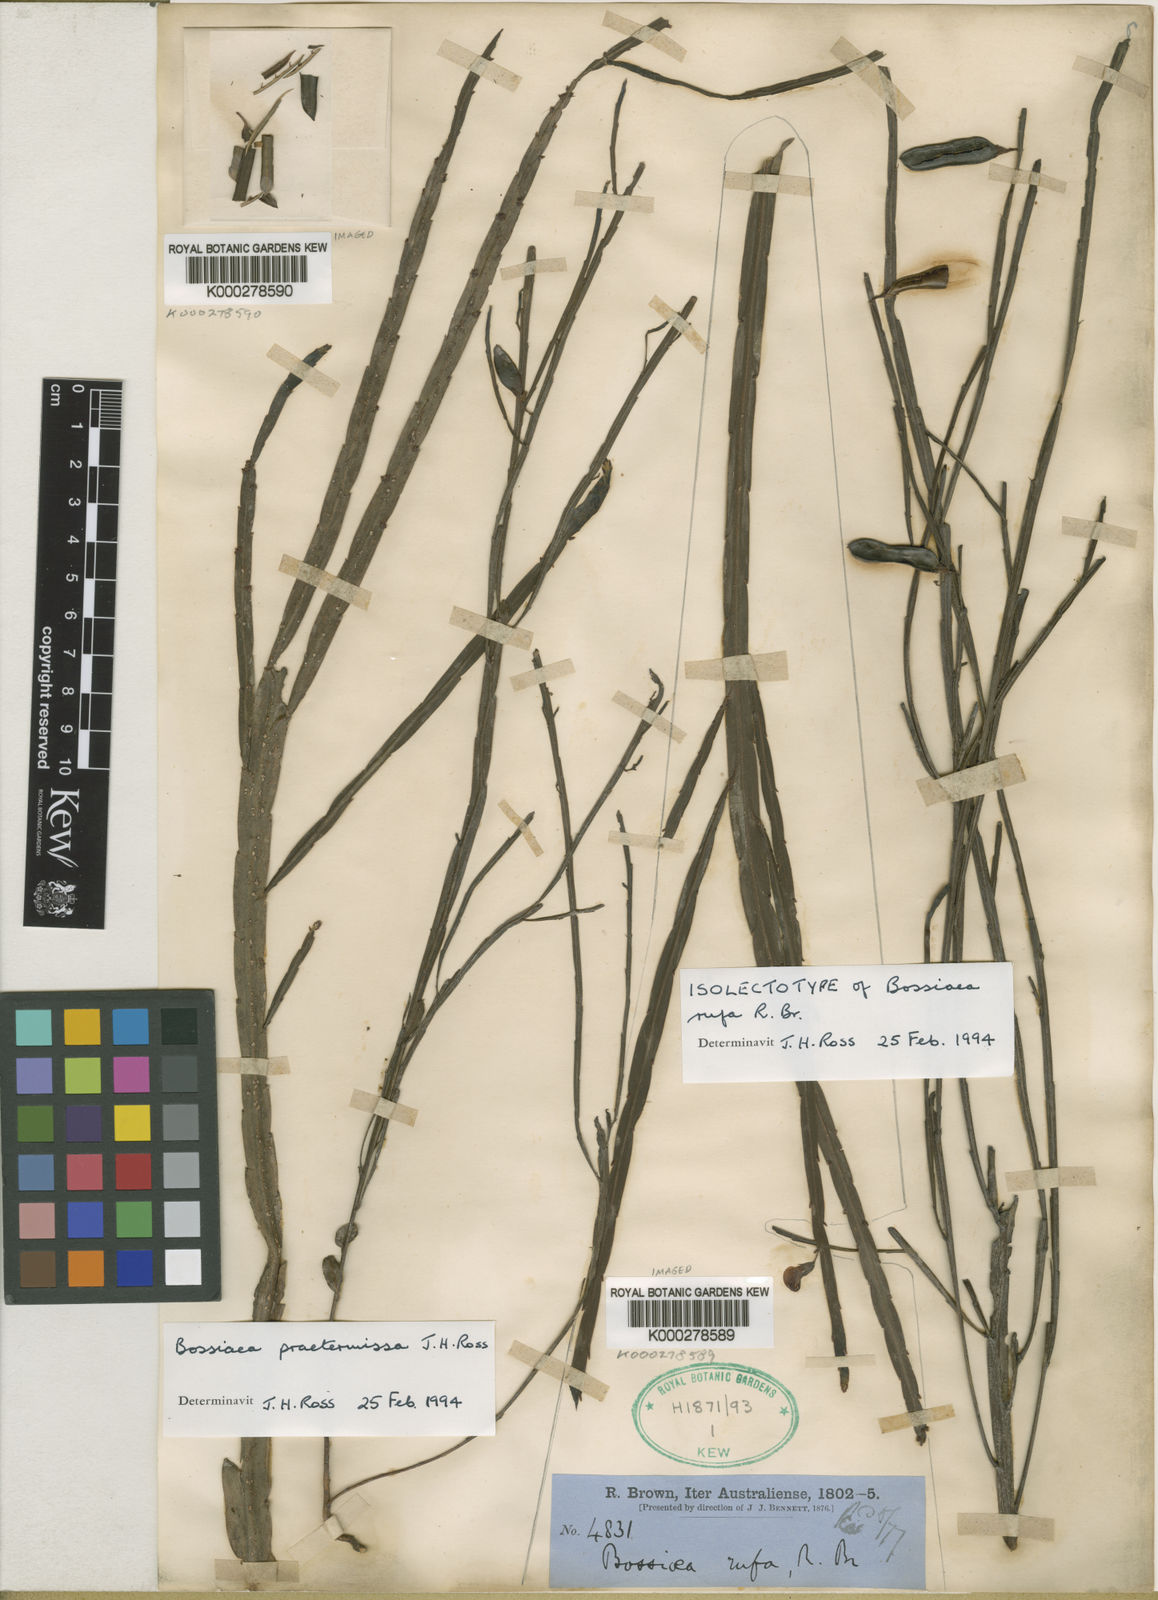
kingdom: Plantae
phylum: Tracheophyta
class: Magnoliopsida
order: Fabales
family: Fabaceae
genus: Bossiaea
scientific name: Bossiaea rufa
